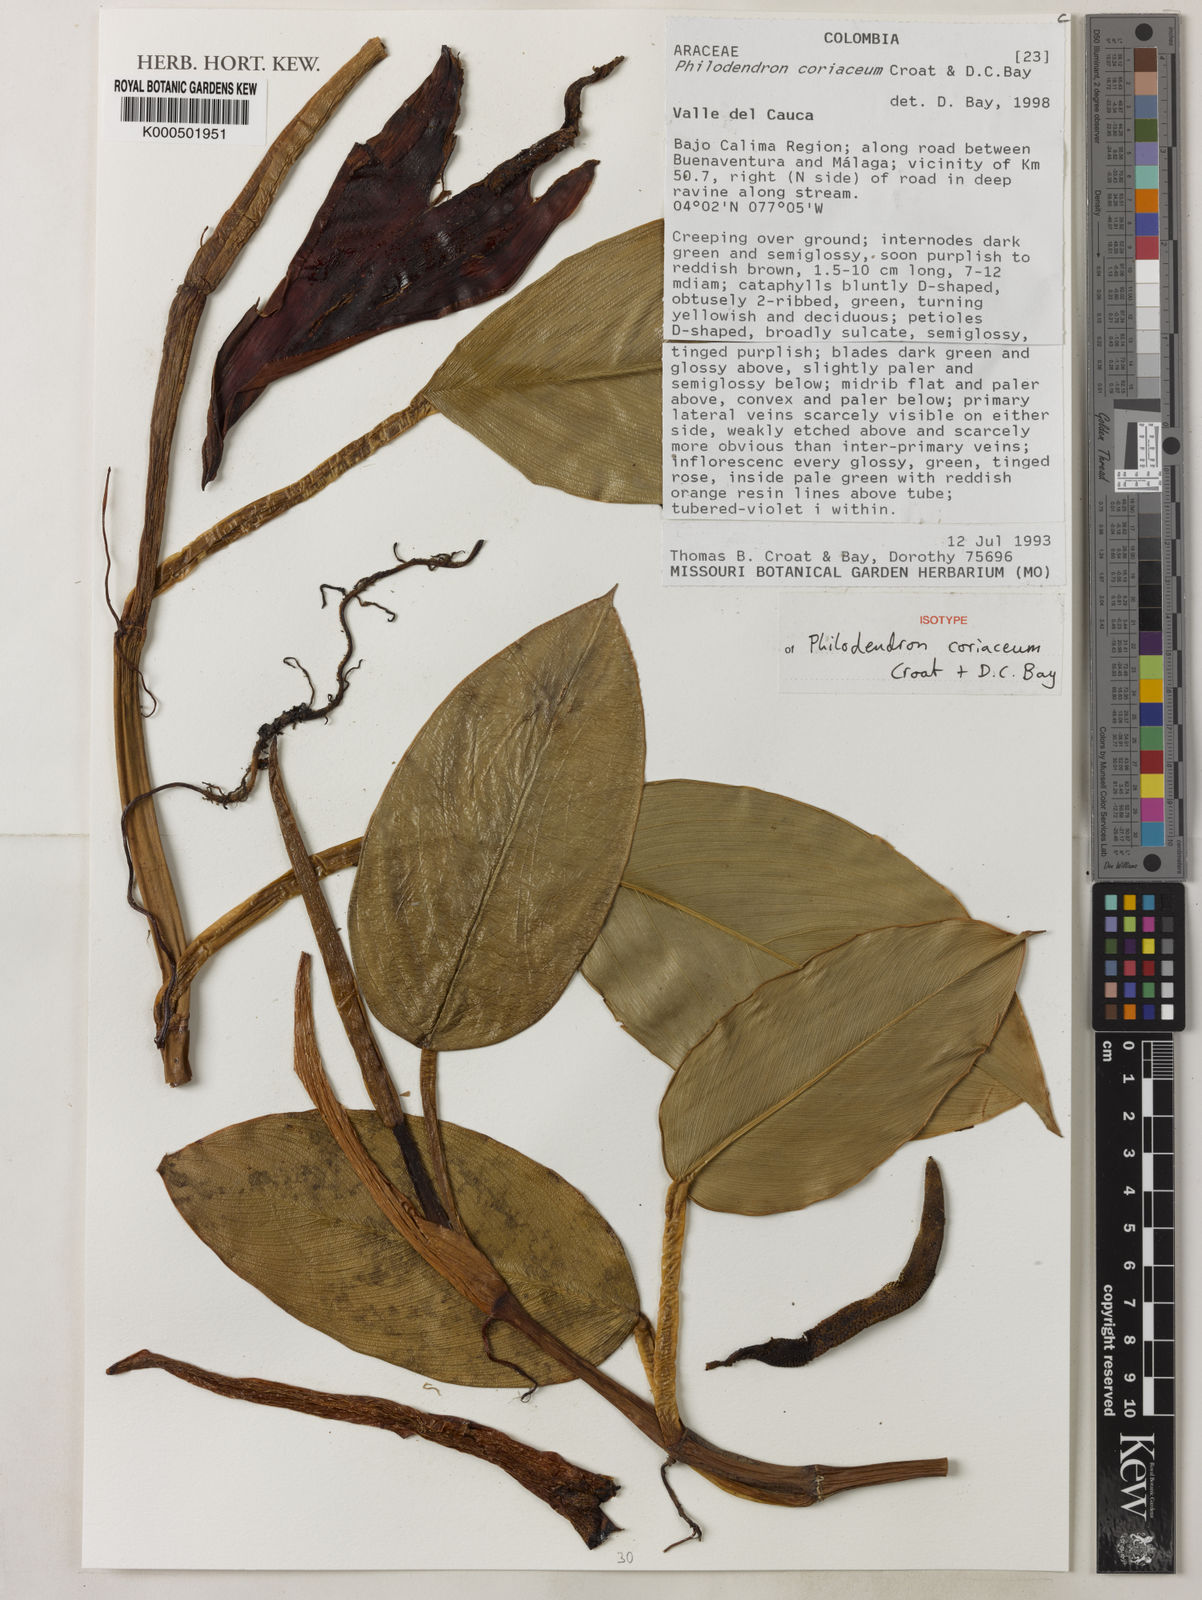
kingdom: Plantae
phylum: Tracheophyta
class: Liliopsida
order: Alismatales
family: Araceae
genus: Philodendron
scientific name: Philodendron coriaceum
